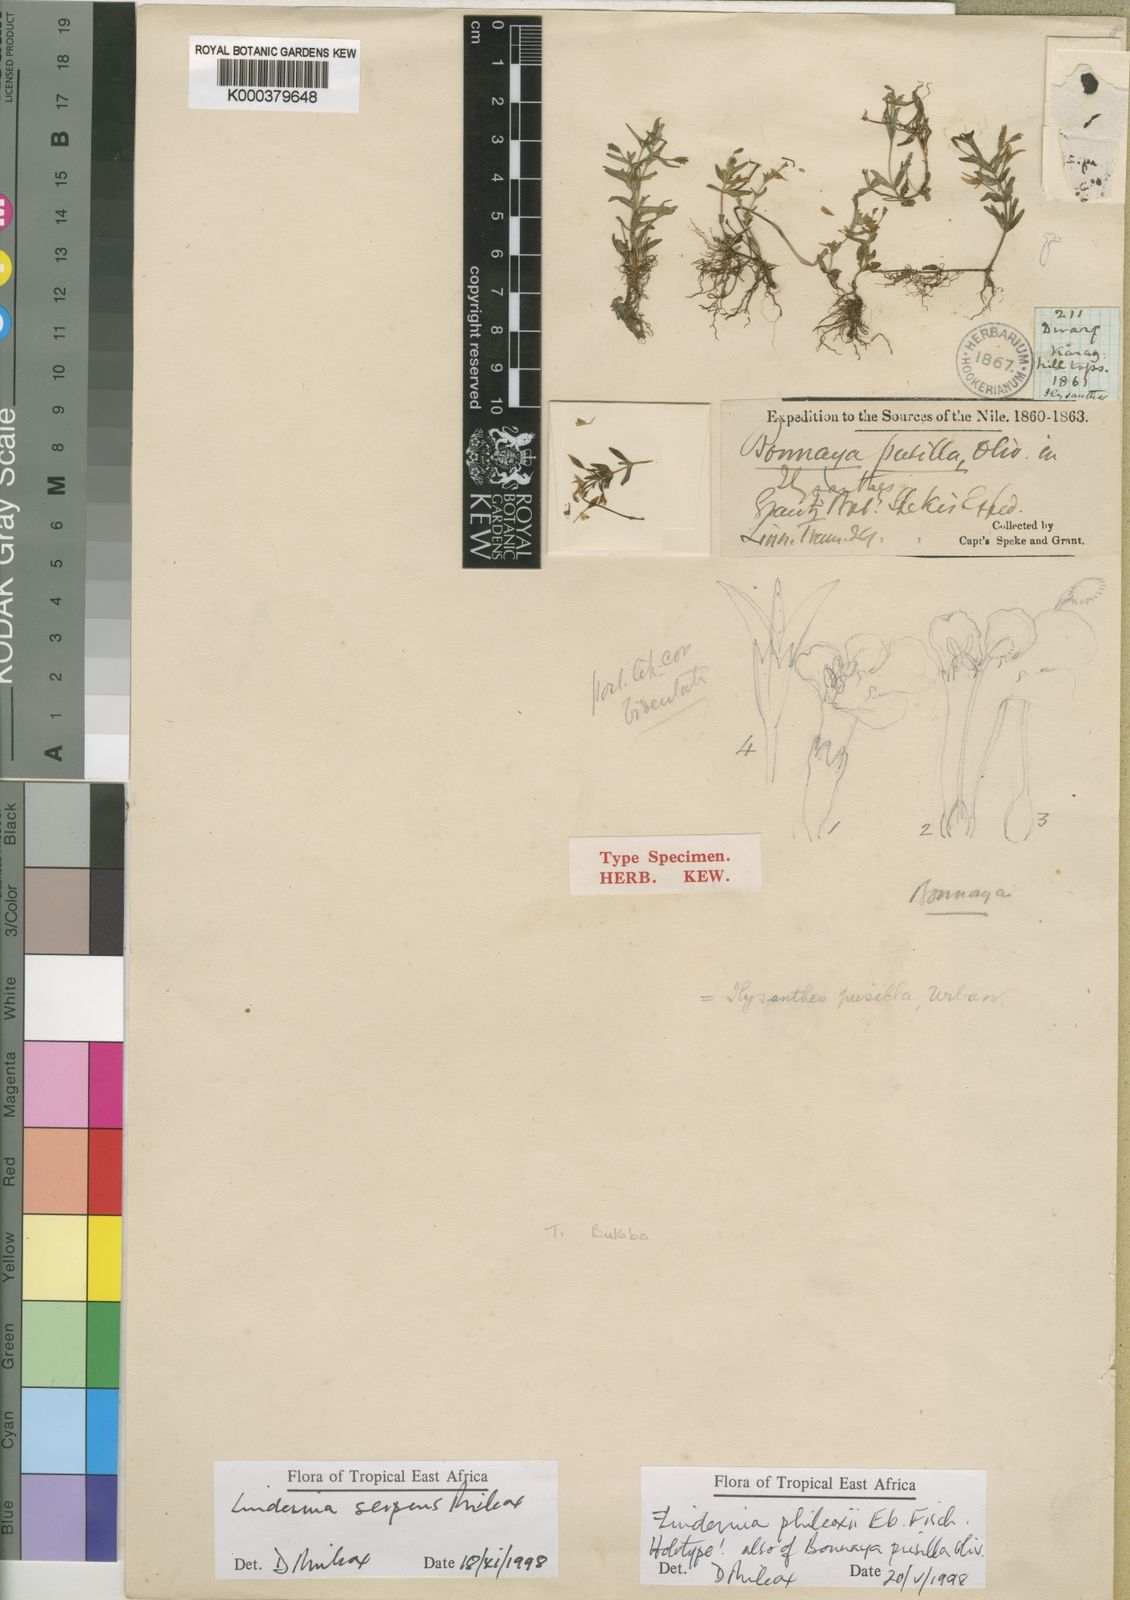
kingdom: Plantae
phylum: Tracheophyta
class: Magnoliopsida
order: Lamiales
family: Linderniaceae
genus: Linderniella
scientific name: Linderniella pusilla
